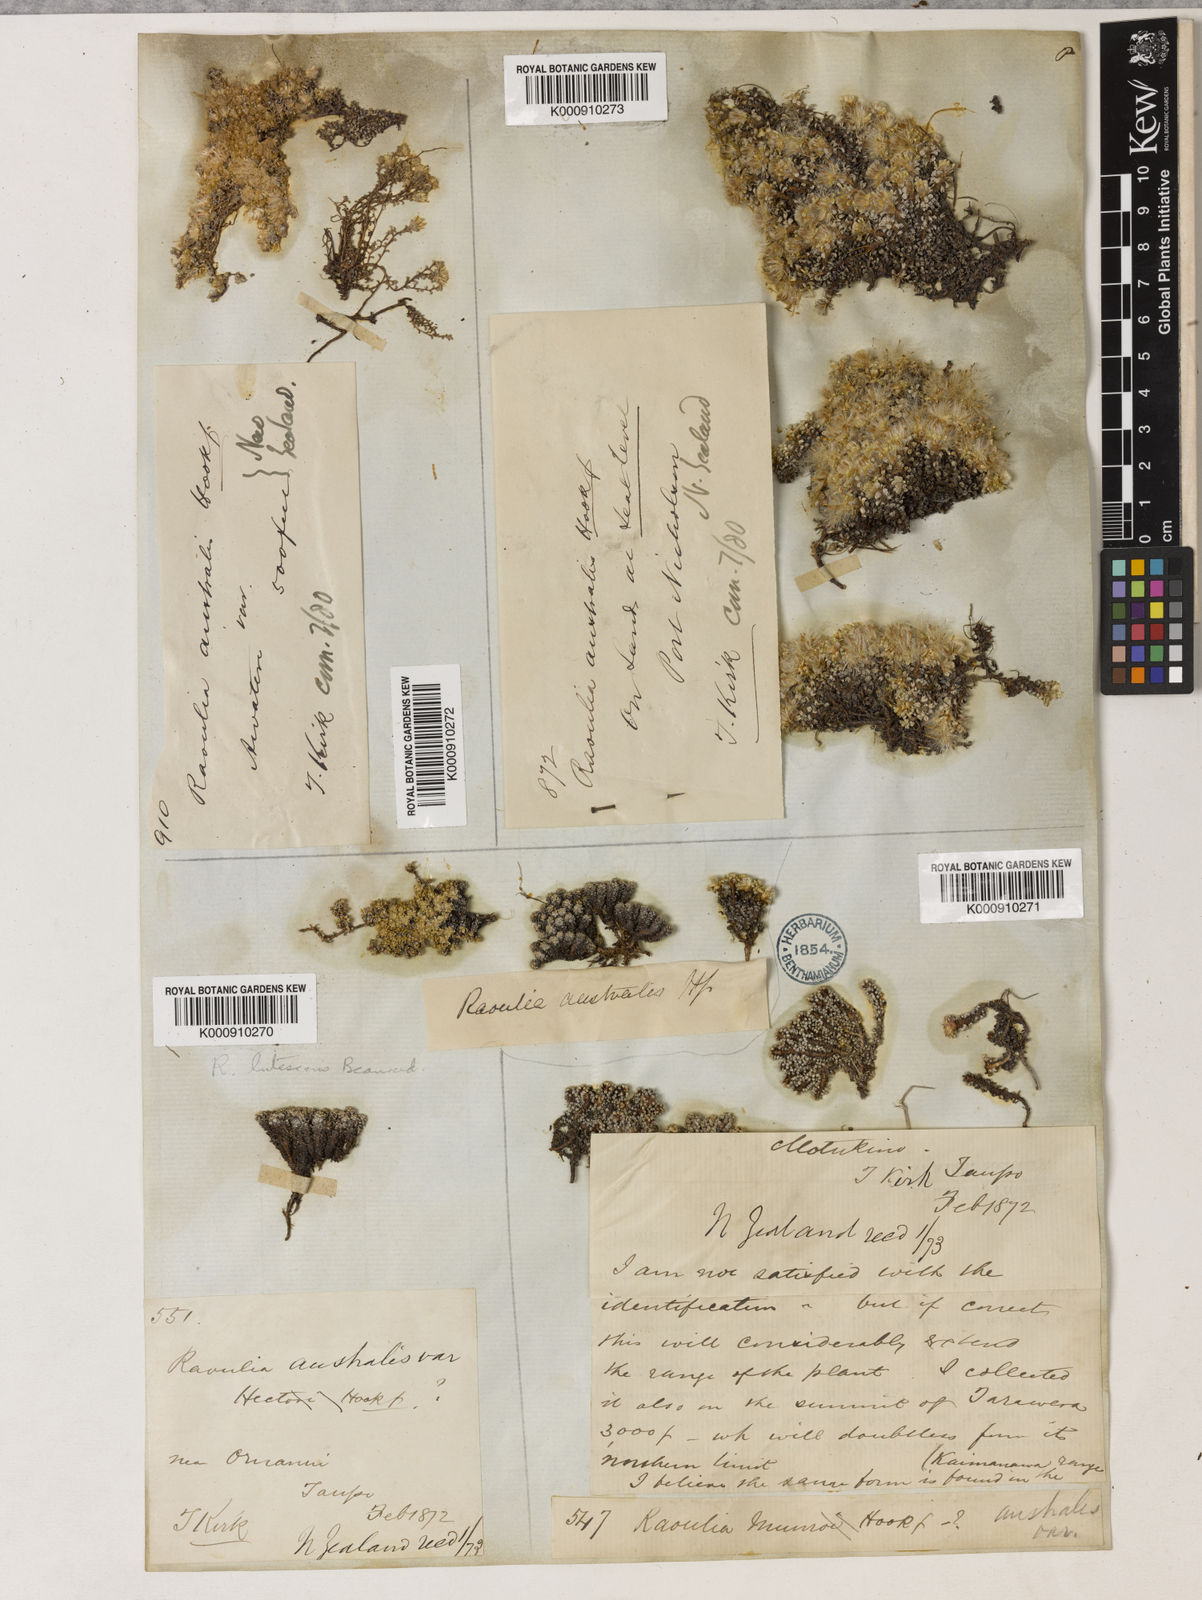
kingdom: Plantae
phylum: Tracheophyta
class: Magnoliopsida
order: Asterales
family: Asteraceae
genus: Raoulia
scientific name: Raoulia
